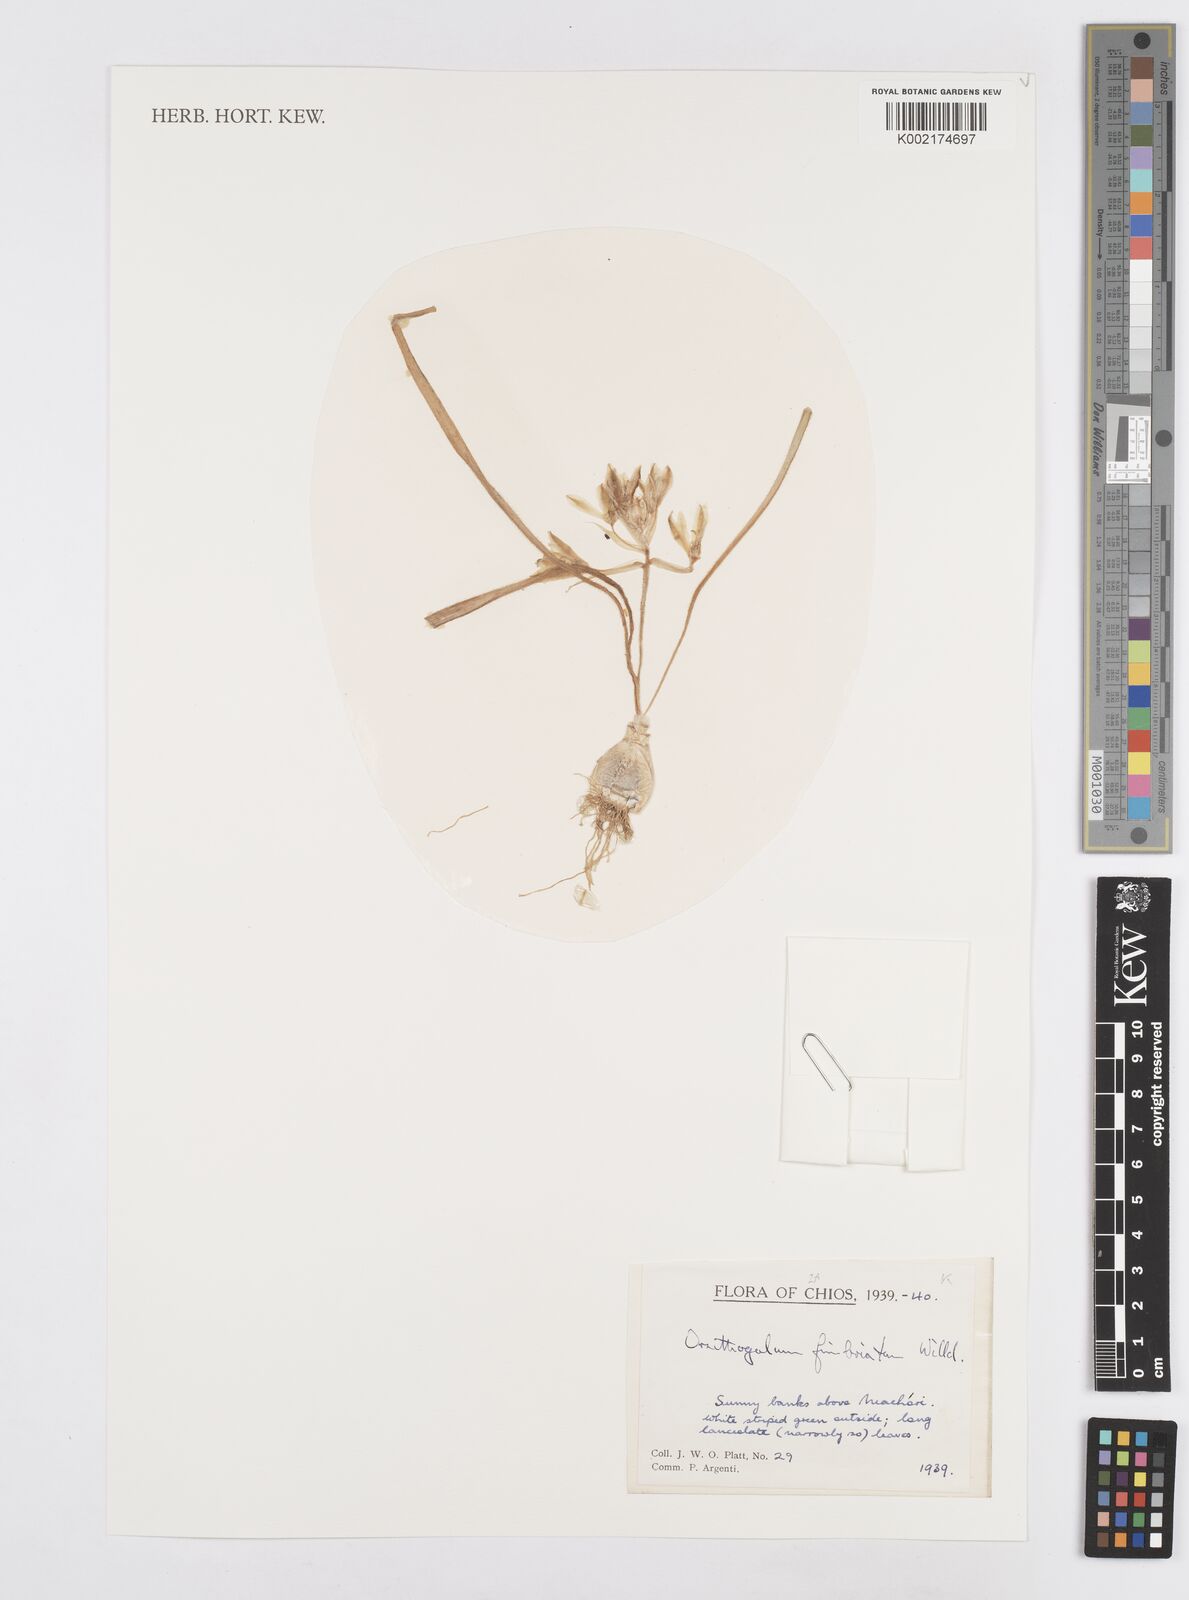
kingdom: Plantae
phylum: Tracheophyta
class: Liliopsida
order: Asparagales
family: Asparagaceae
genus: Ornithogalum
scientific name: Ornithogalum fimbriatum
